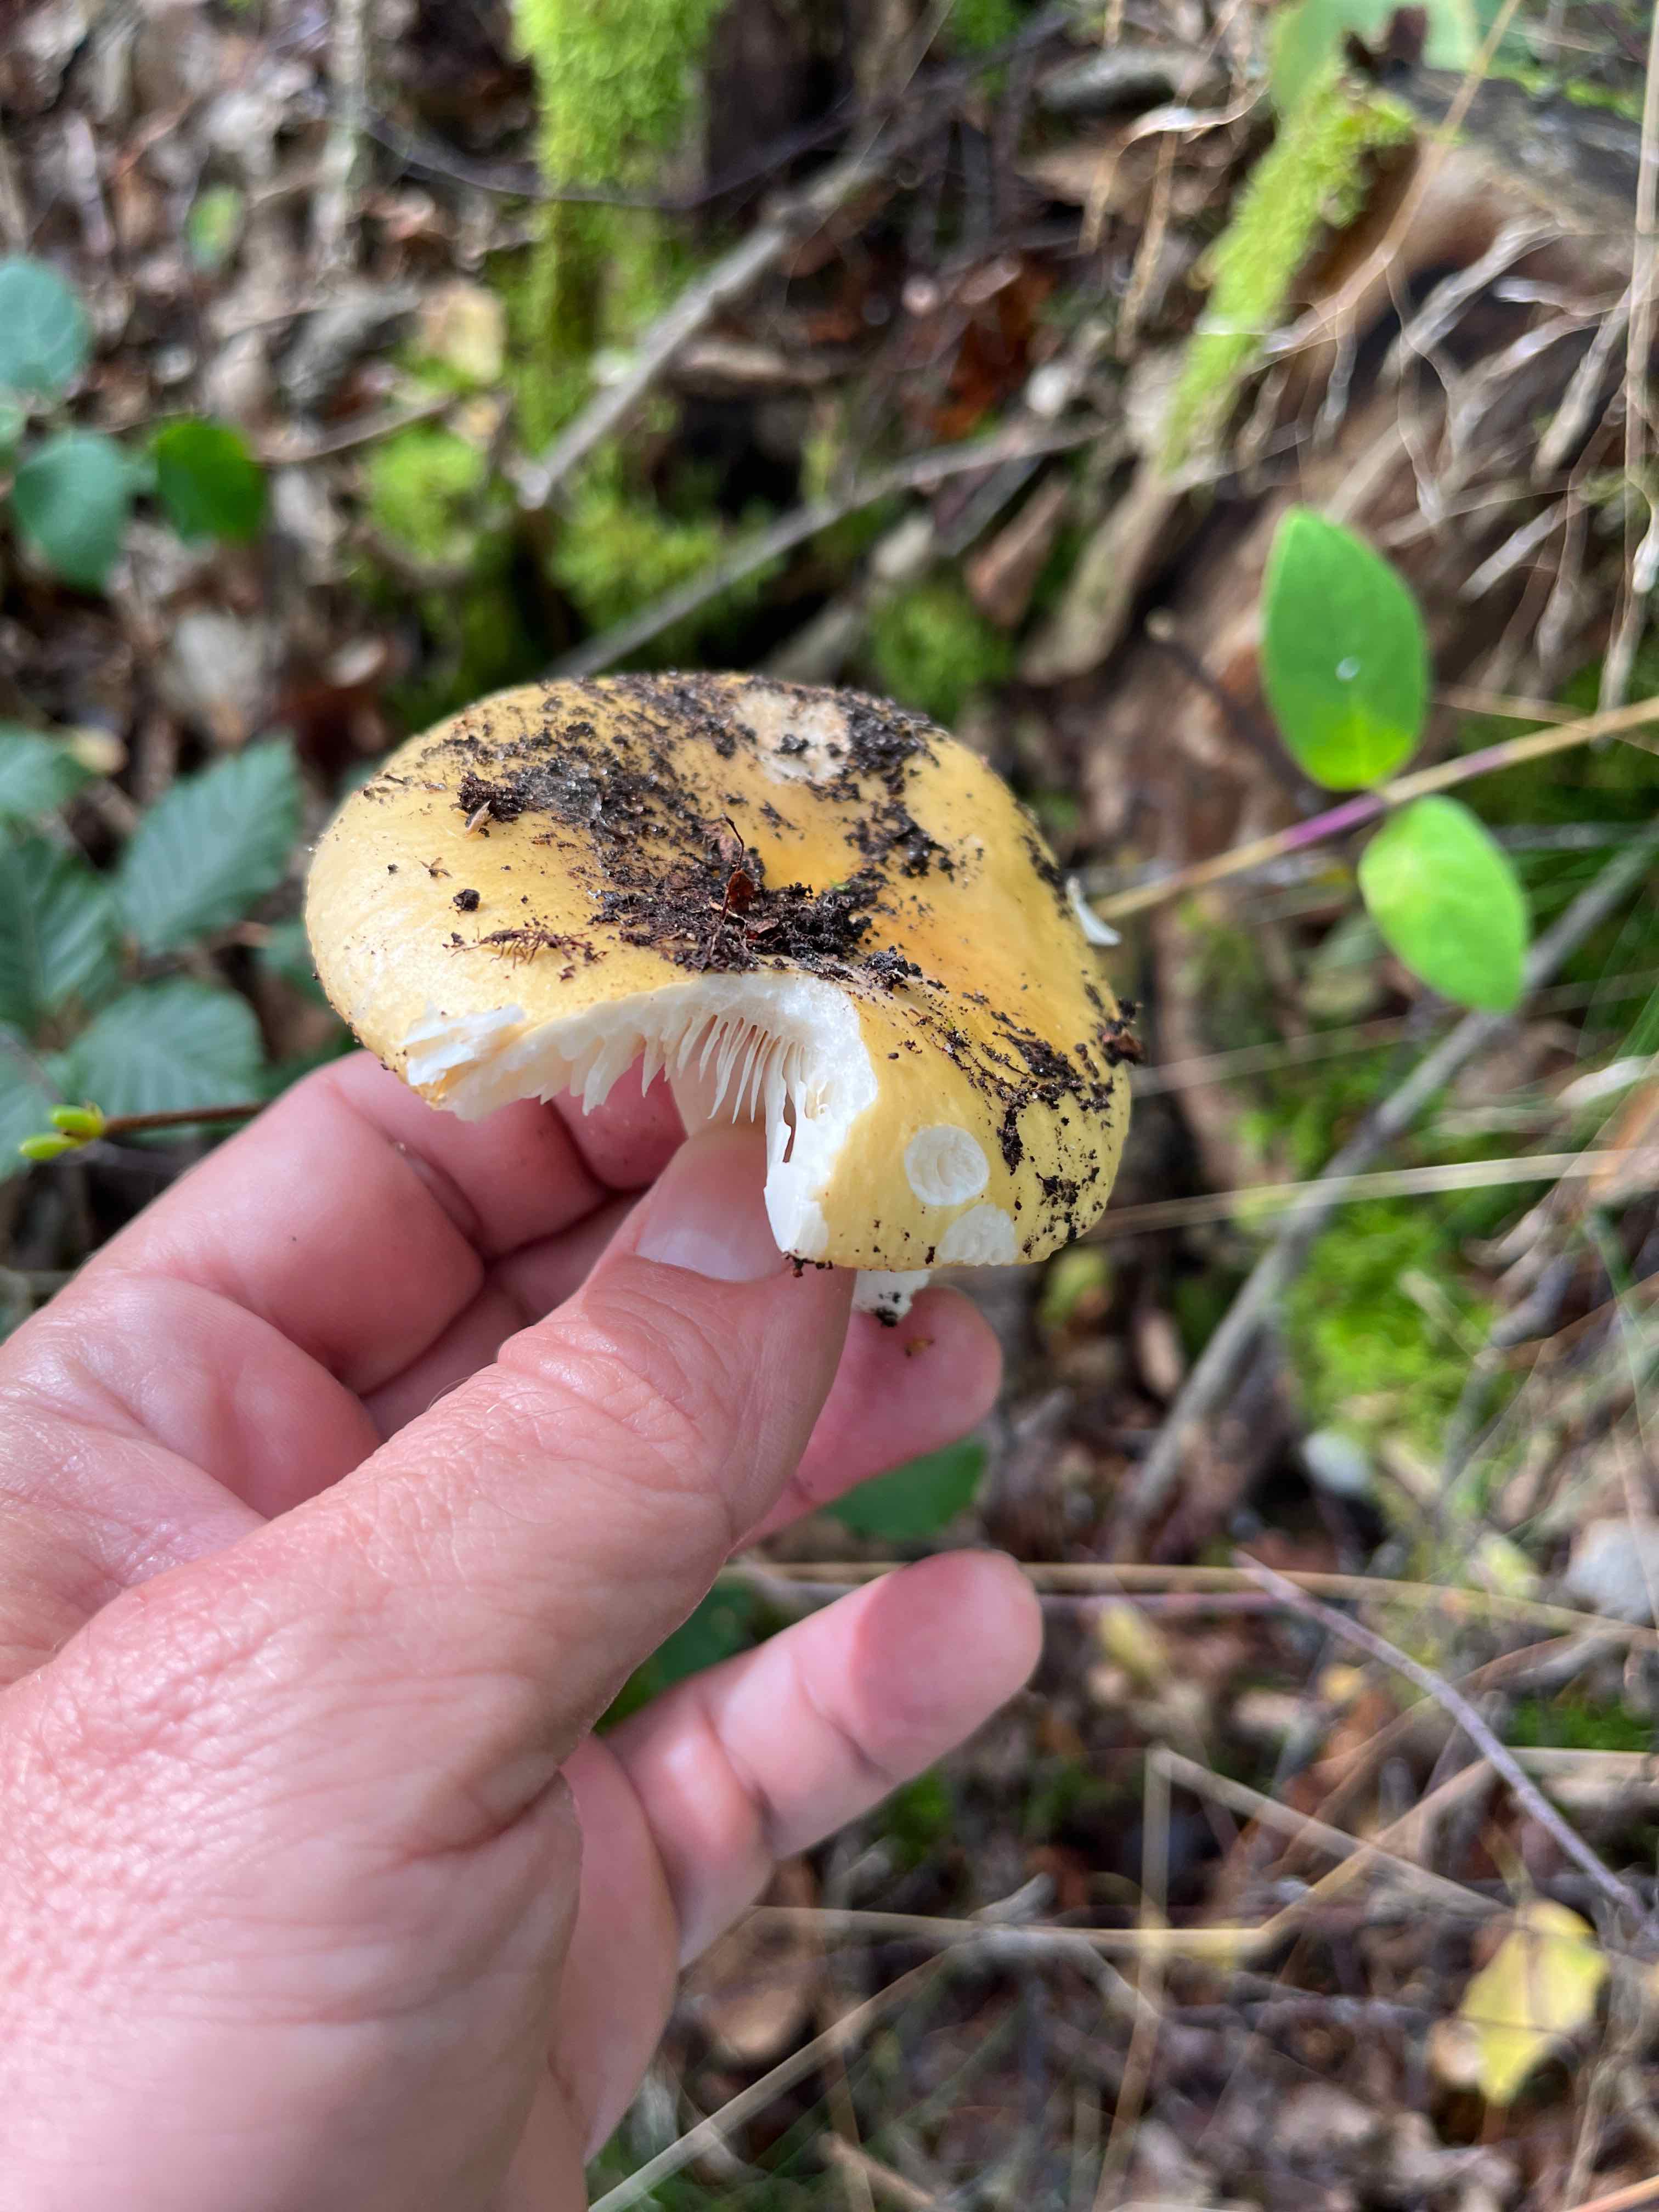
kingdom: Fungi
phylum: Basidiomycota
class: Agaricomycetes
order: Russulales
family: Russulaceae
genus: Russula
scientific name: Russula
